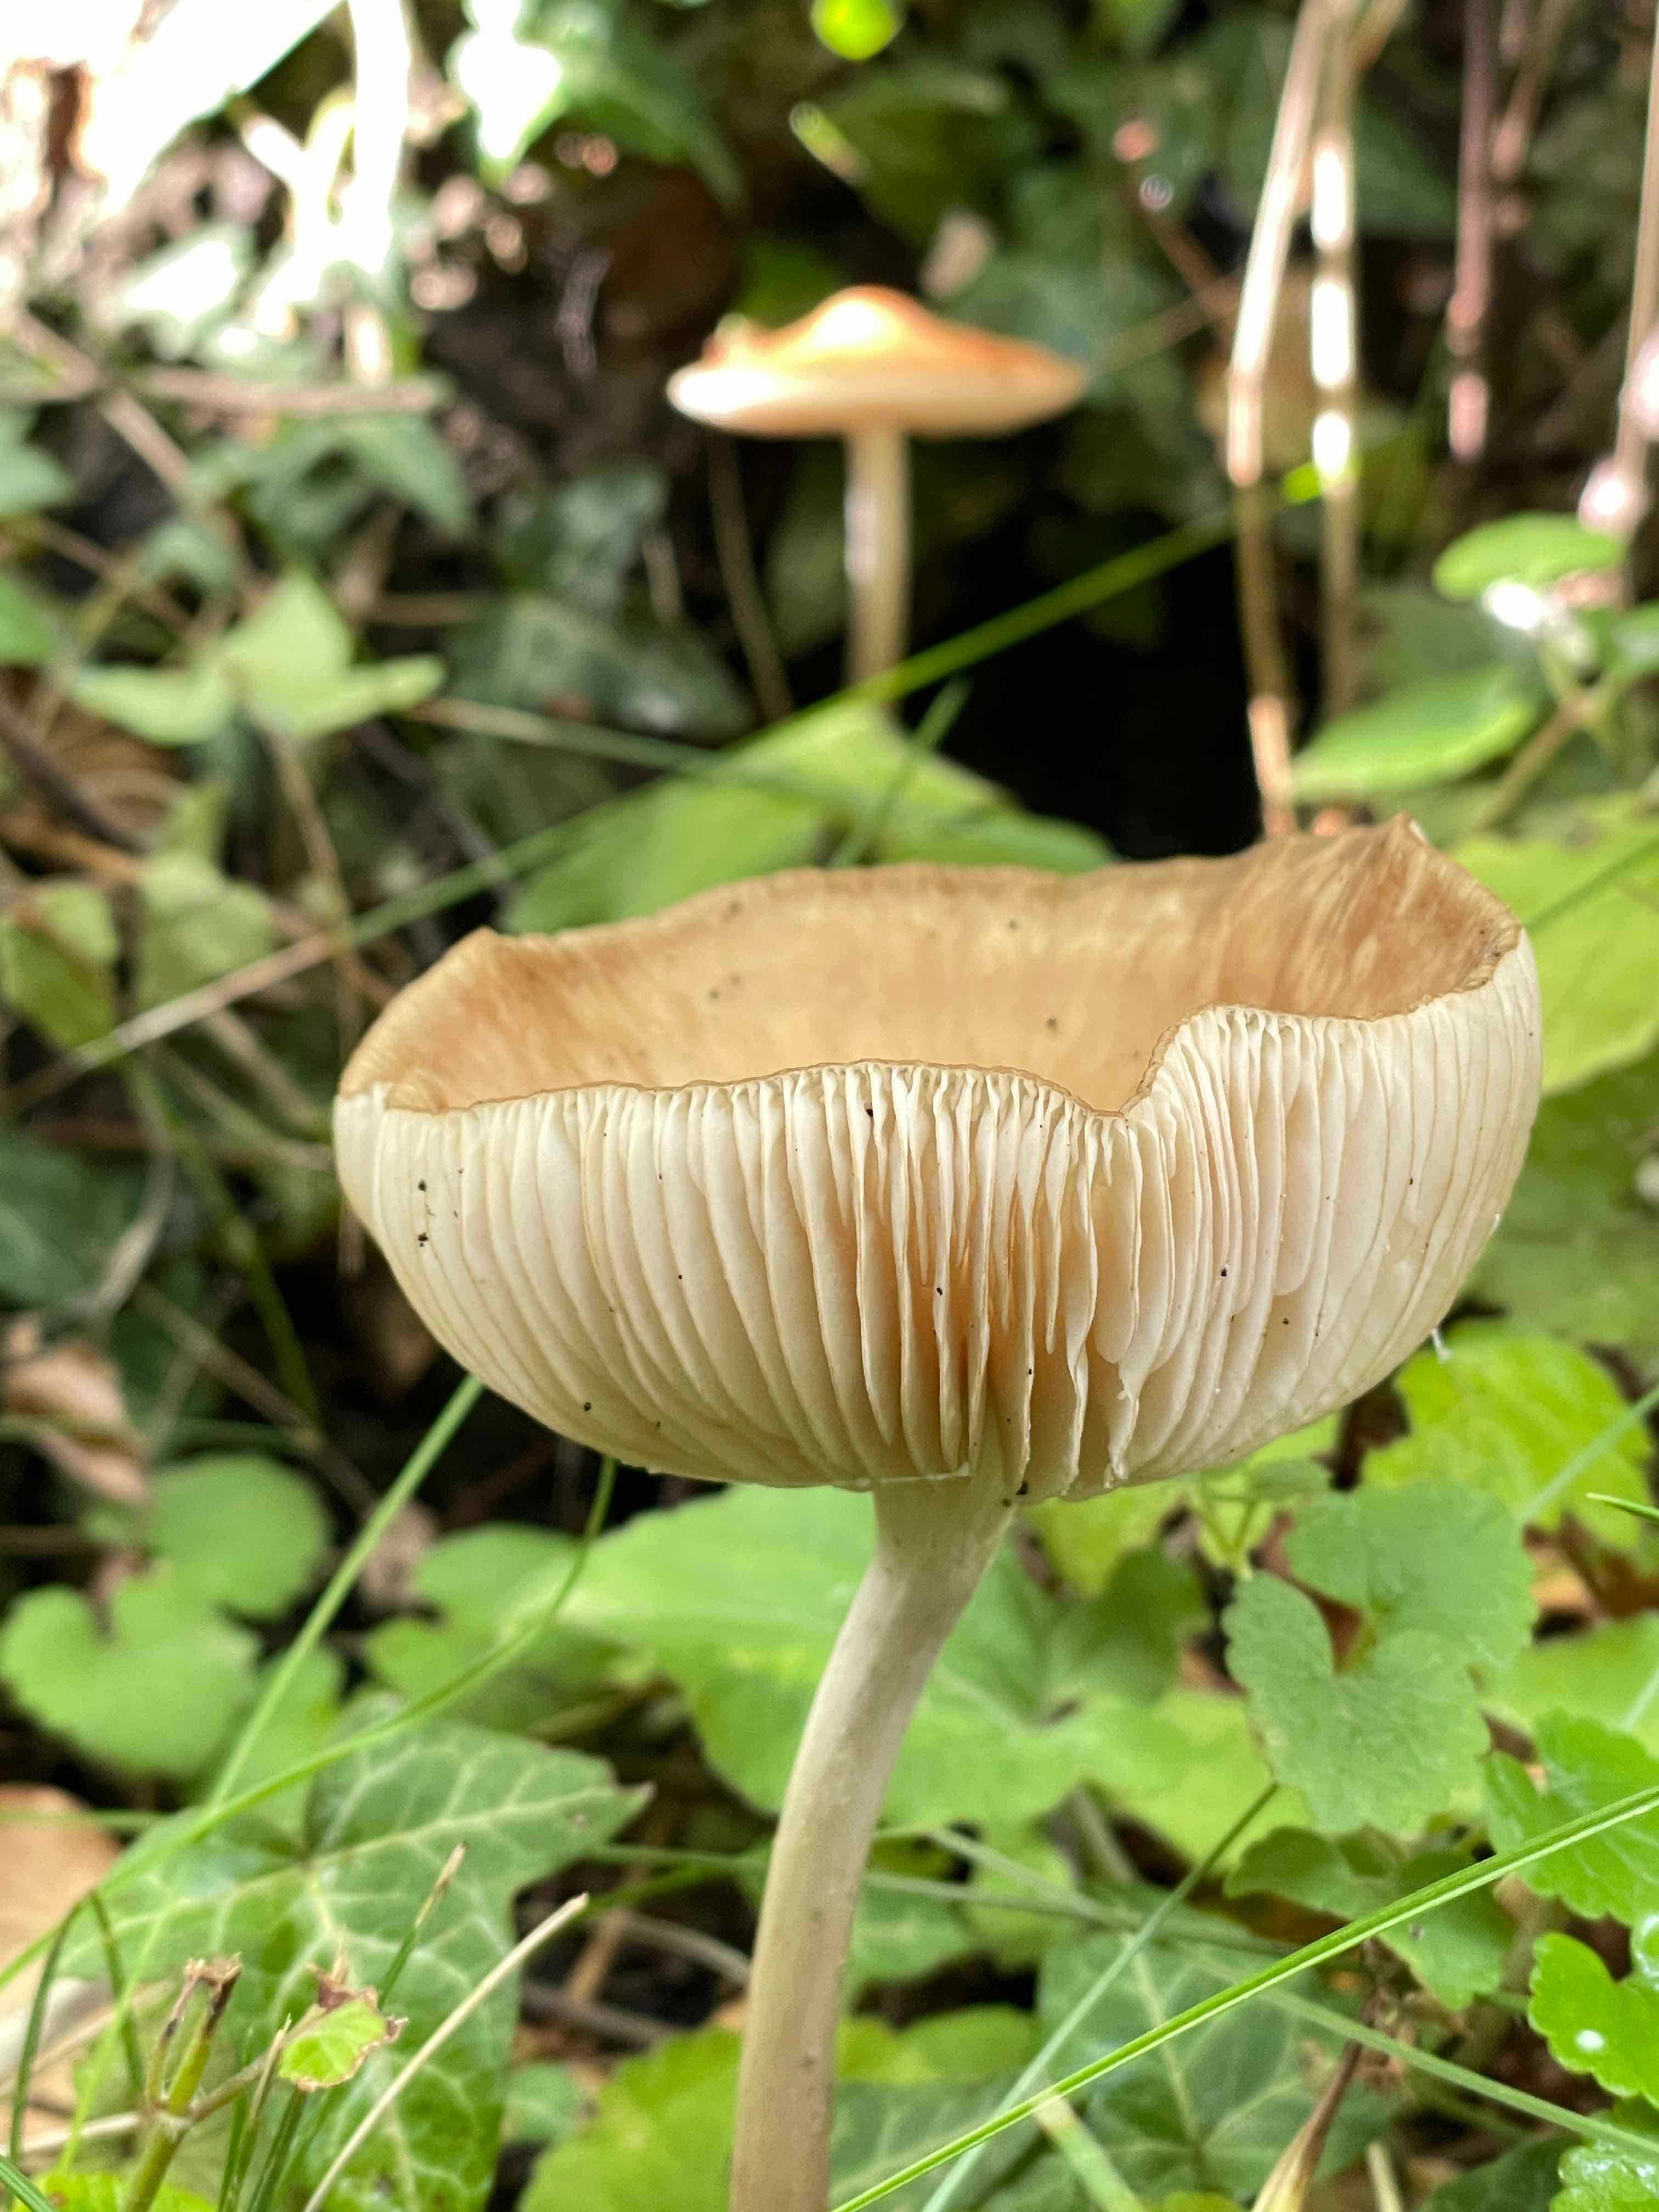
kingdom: Fungi
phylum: Basidiomycota
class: Agaricomycetes
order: Agaricales
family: Physalacriaceae
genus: Hymenopellis
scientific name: Hymenopellis radicata
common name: almindelig pælerodshat
